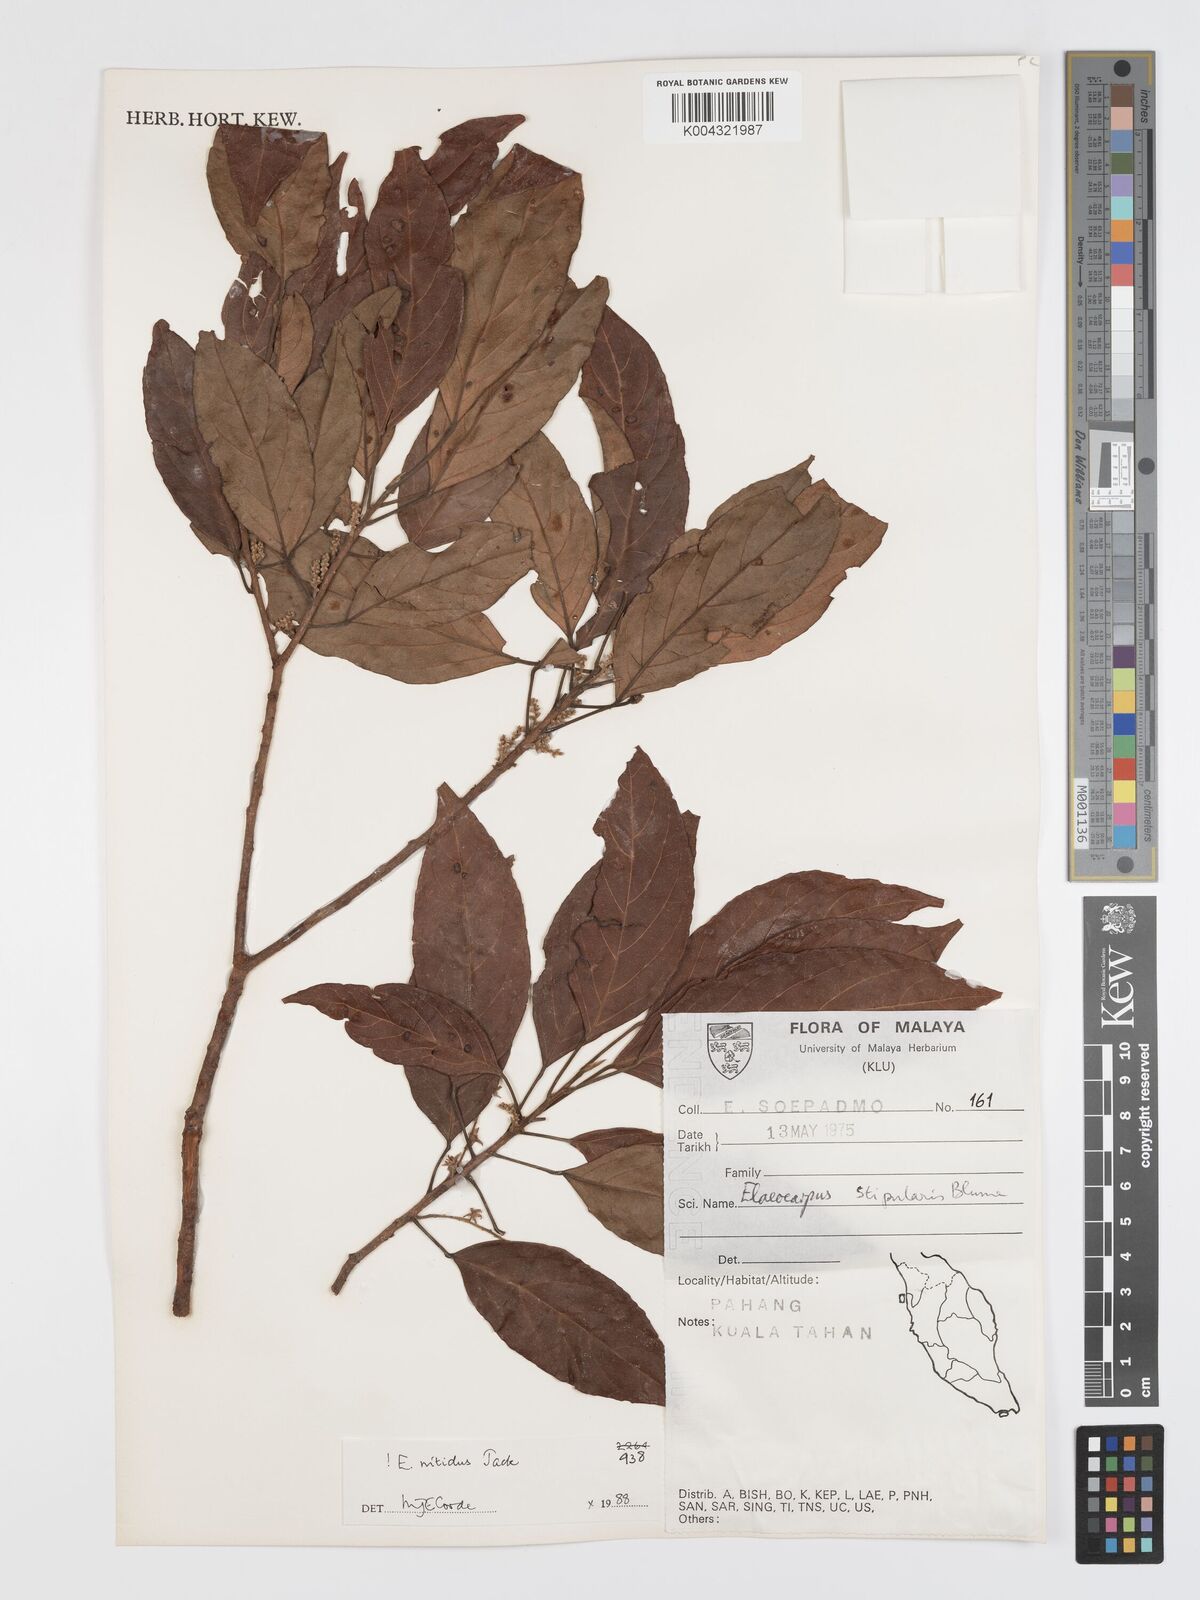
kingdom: Plantae
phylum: Tracheophyta
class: Magnoliopsida
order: Oxalidales
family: Elaeocarpaceae
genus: Elaeocarpus
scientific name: Elaeocarpus nitidus
